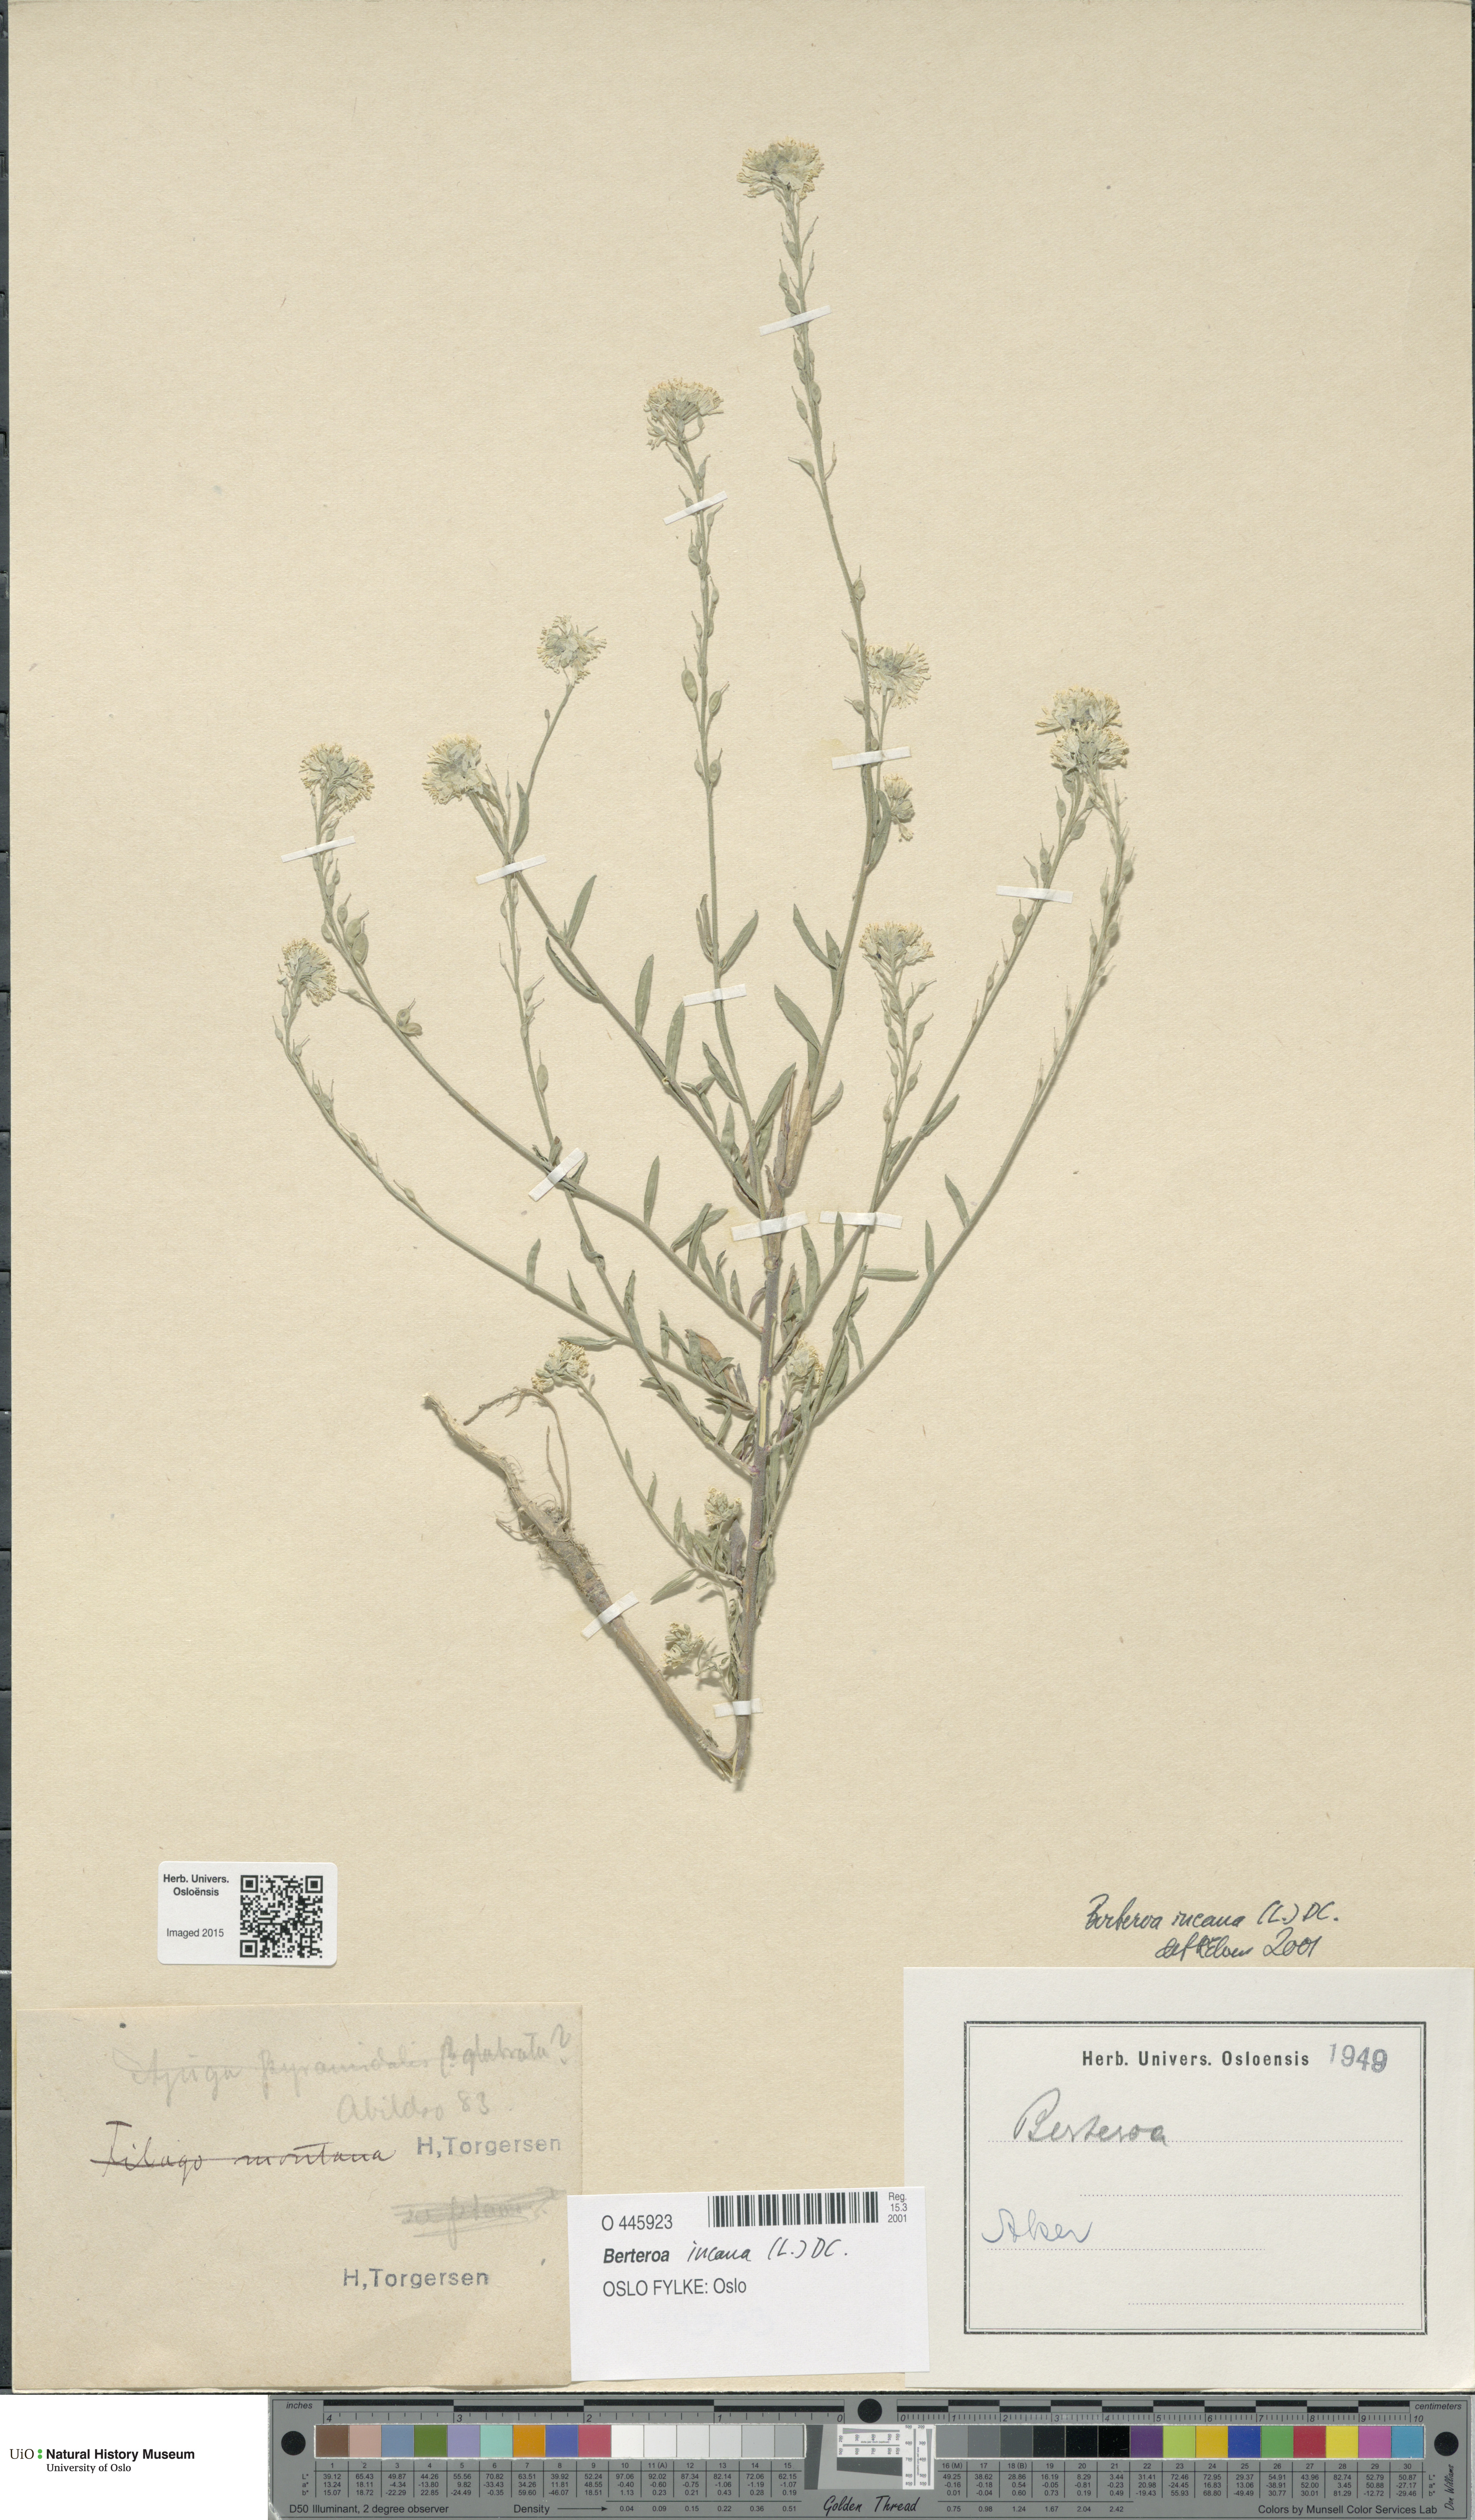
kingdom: Plantae
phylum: Tracheophyta
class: Magnoliopsida
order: Brassicales
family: Brassicaceae
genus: Berteroa
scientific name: Berteroa incana
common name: Hoary alison
